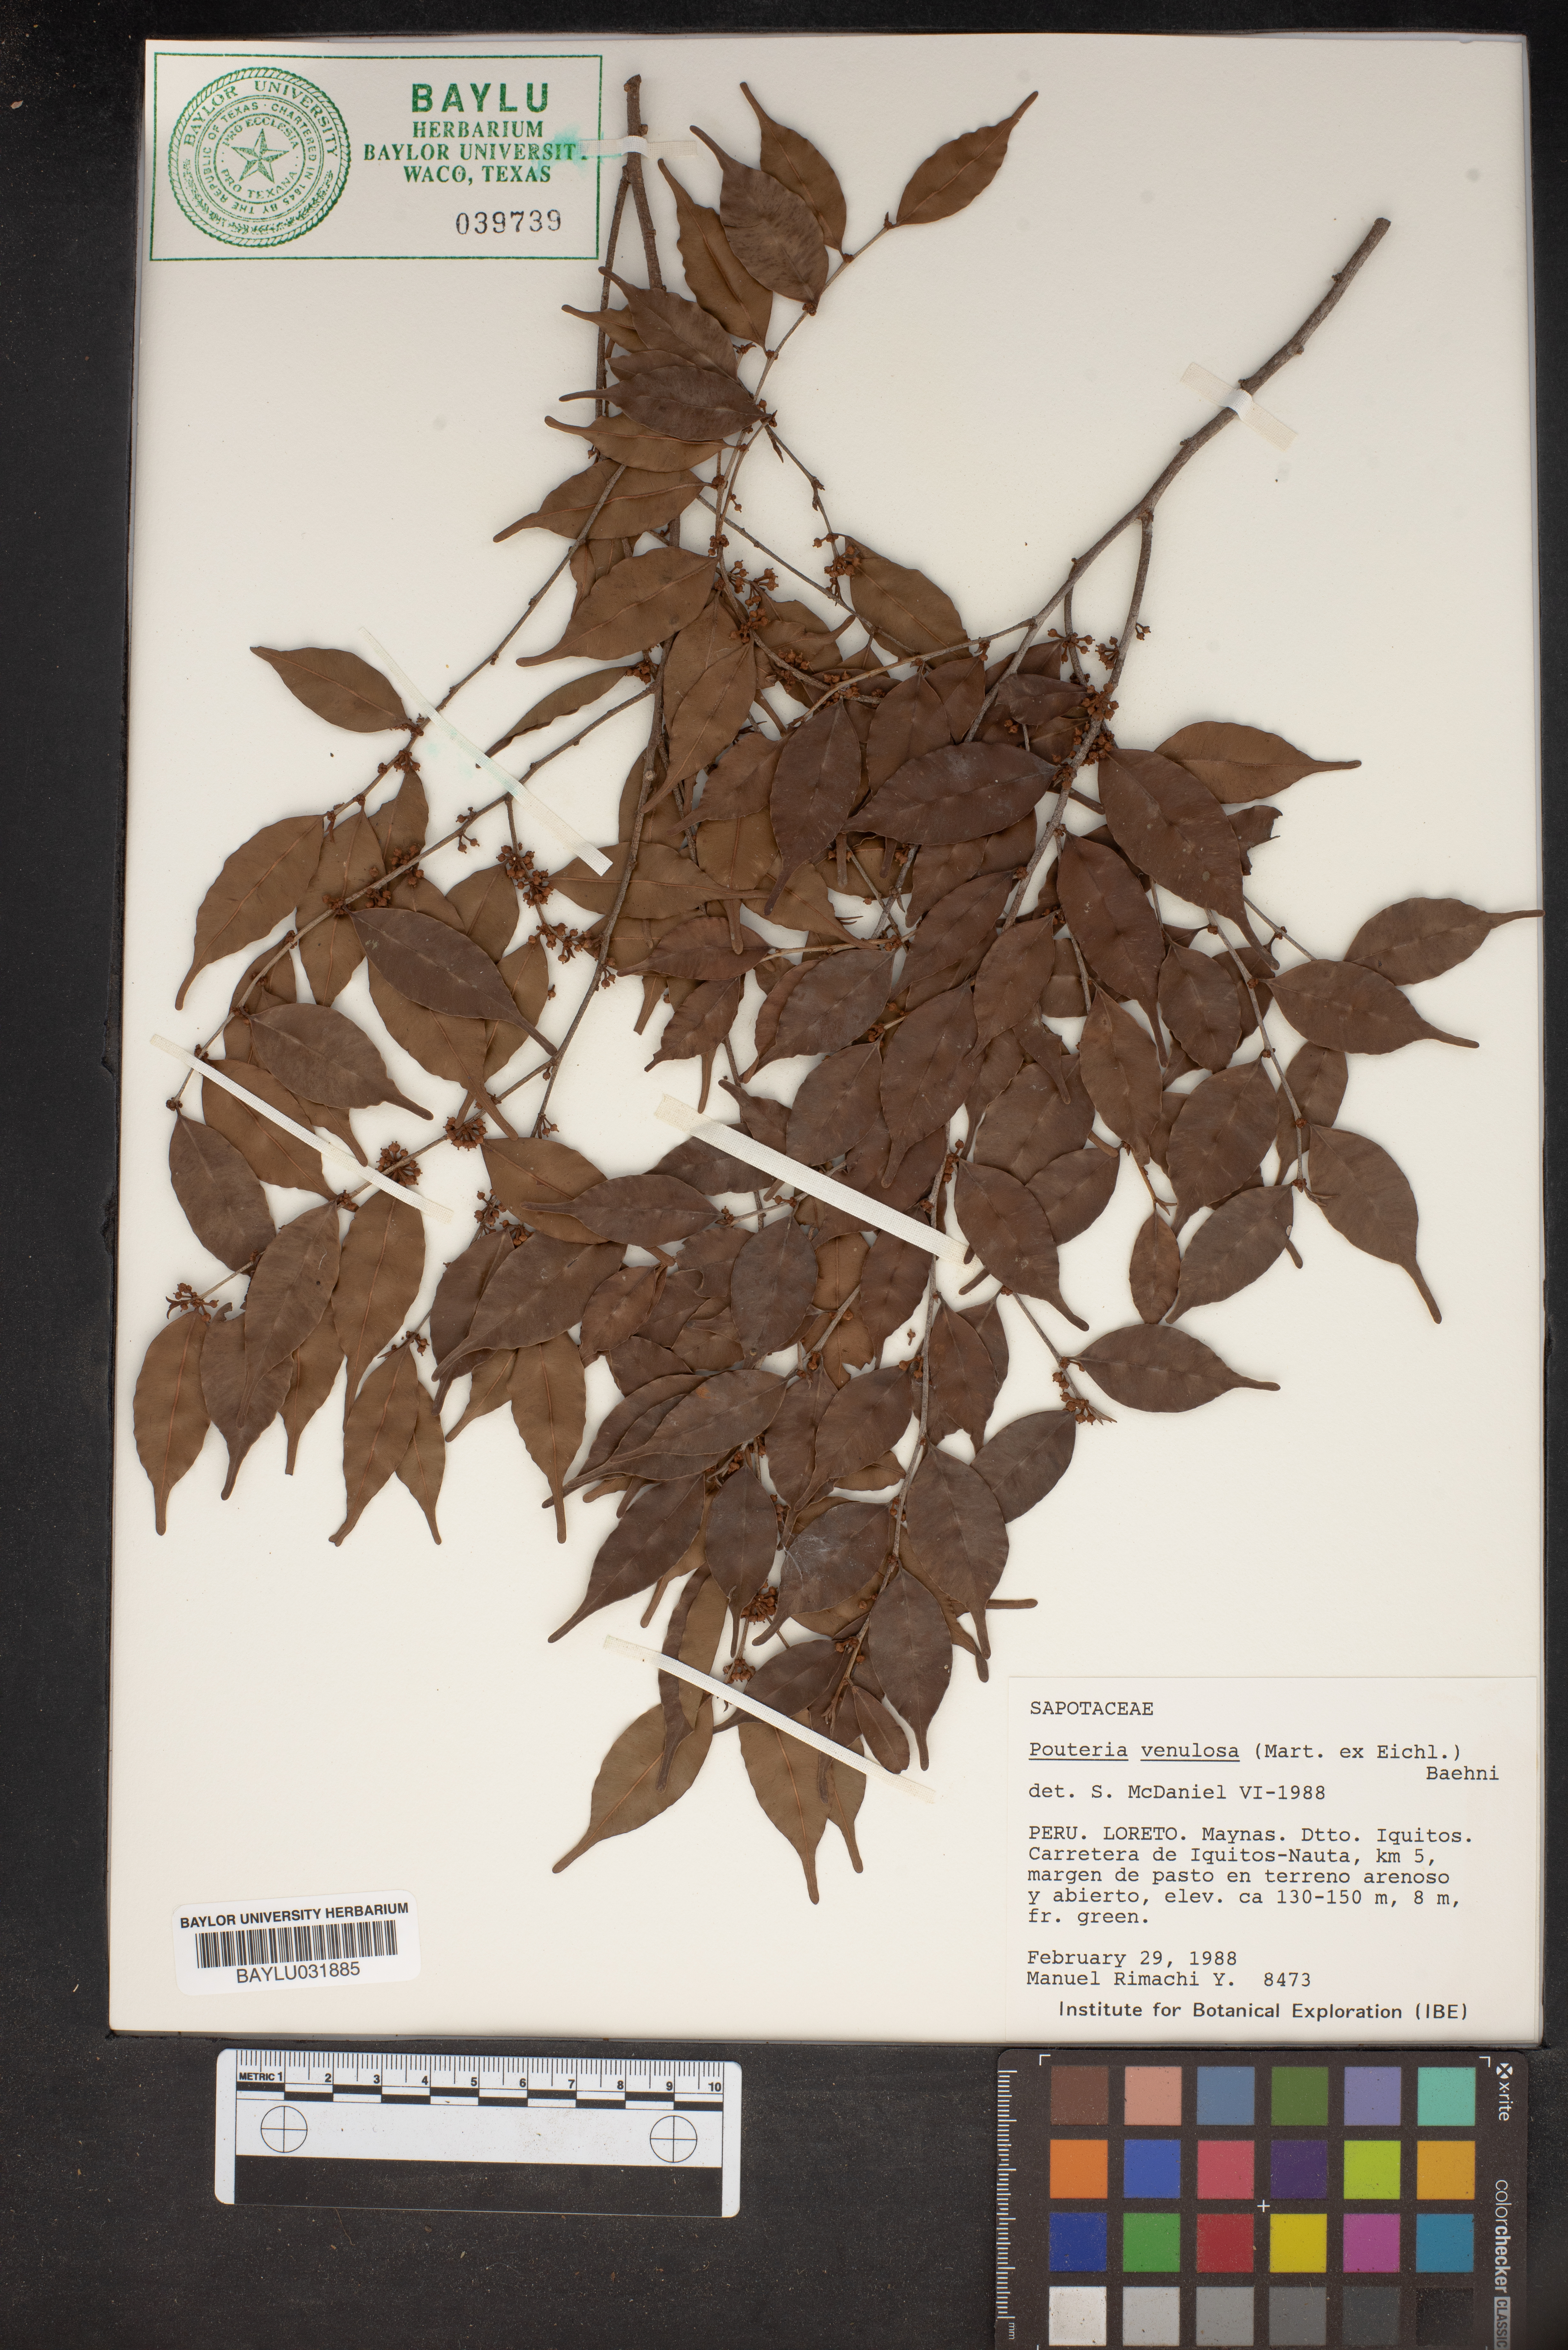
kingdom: Plantae
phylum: Tracheophyta
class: Magnoliopsida
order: Ericales
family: Sapotaceae
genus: Micropholis
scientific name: Micropholis venulosa
